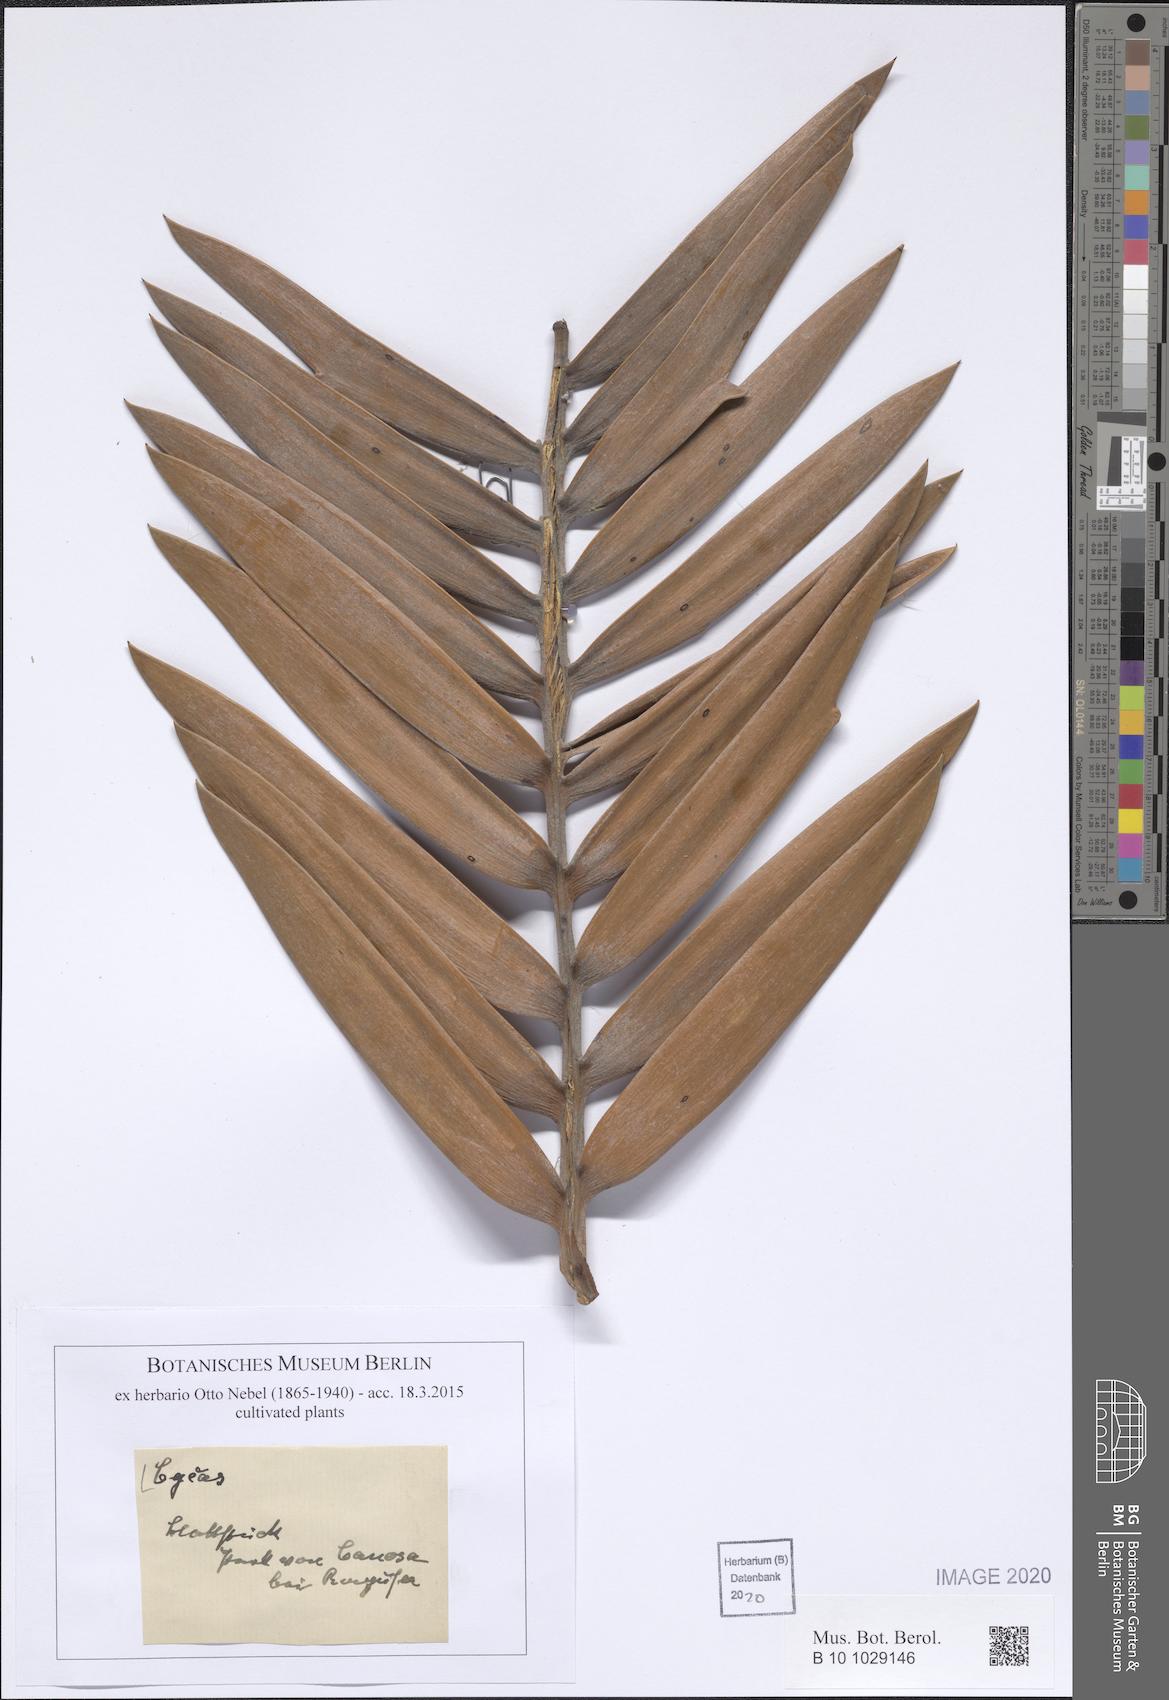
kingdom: Plantae
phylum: Tracheophyta
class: Cycadopsida
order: Cycadales
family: Cycadaceae
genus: Cycas
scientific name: Cycas
